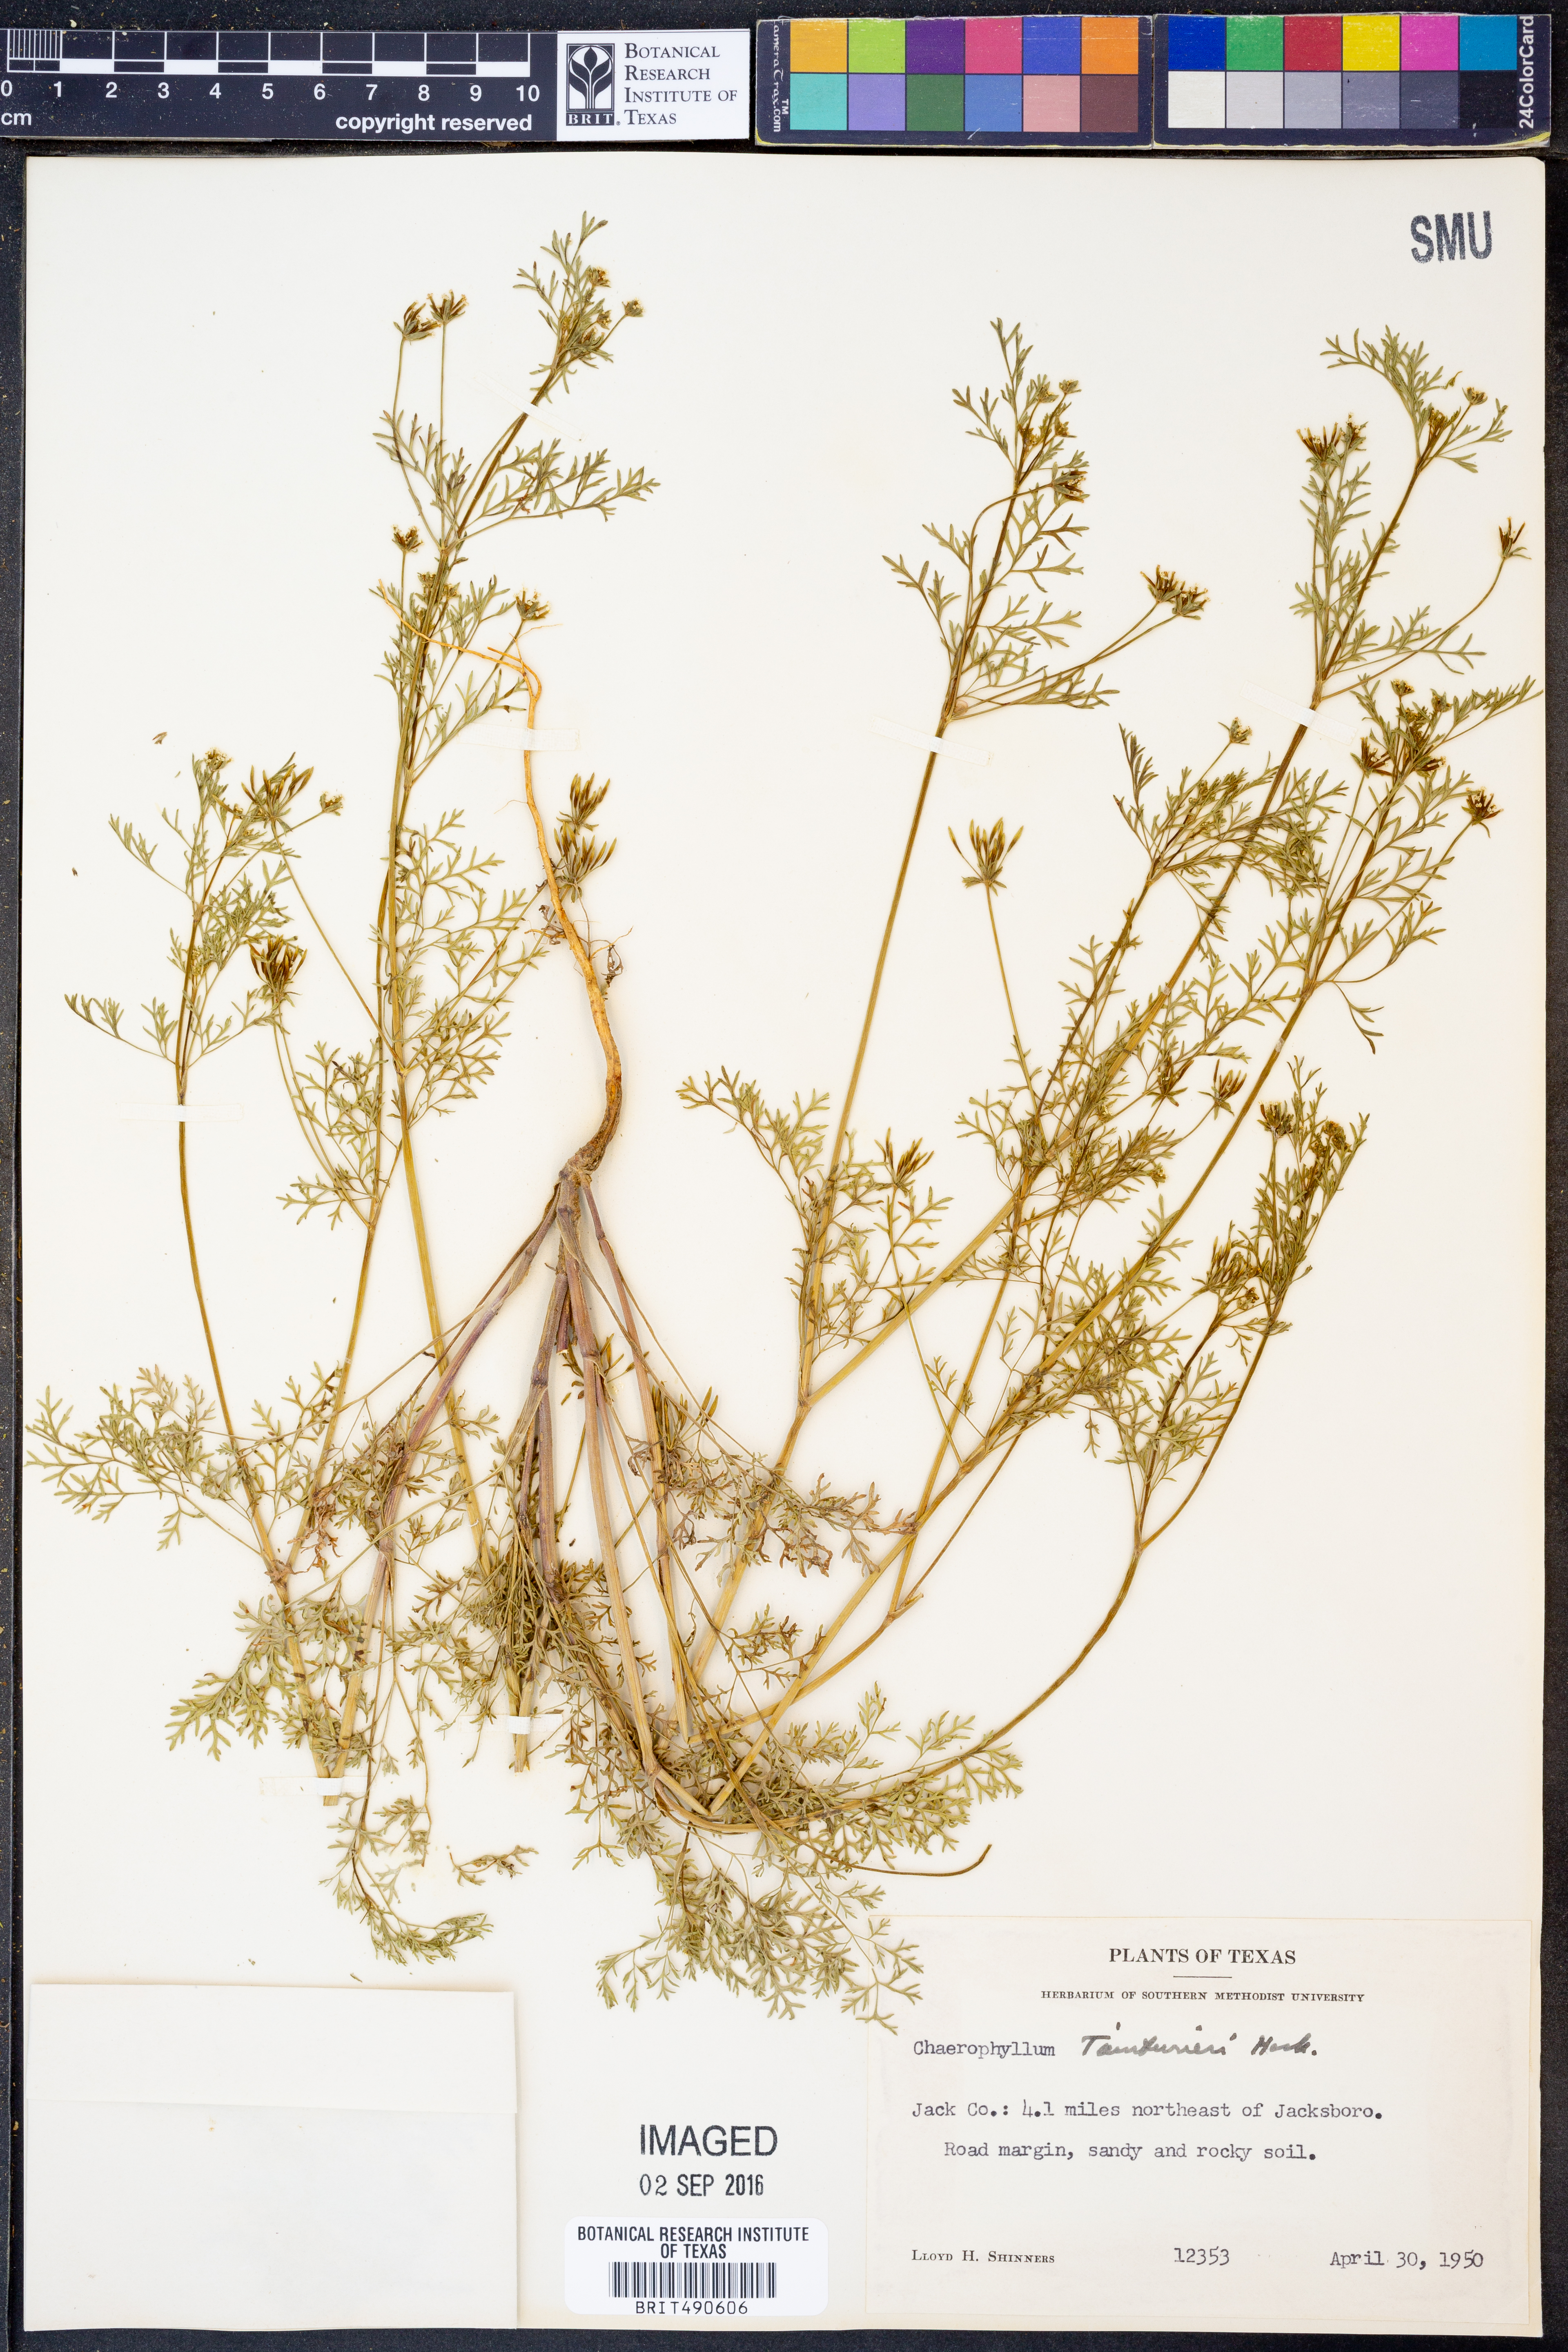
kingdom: Plantae
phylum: Tracheophyta
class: Magnoliopsida
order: Apiales
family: Apiaceae
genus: Chaerophyllum
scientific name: Chaerophyllum tainturieri
